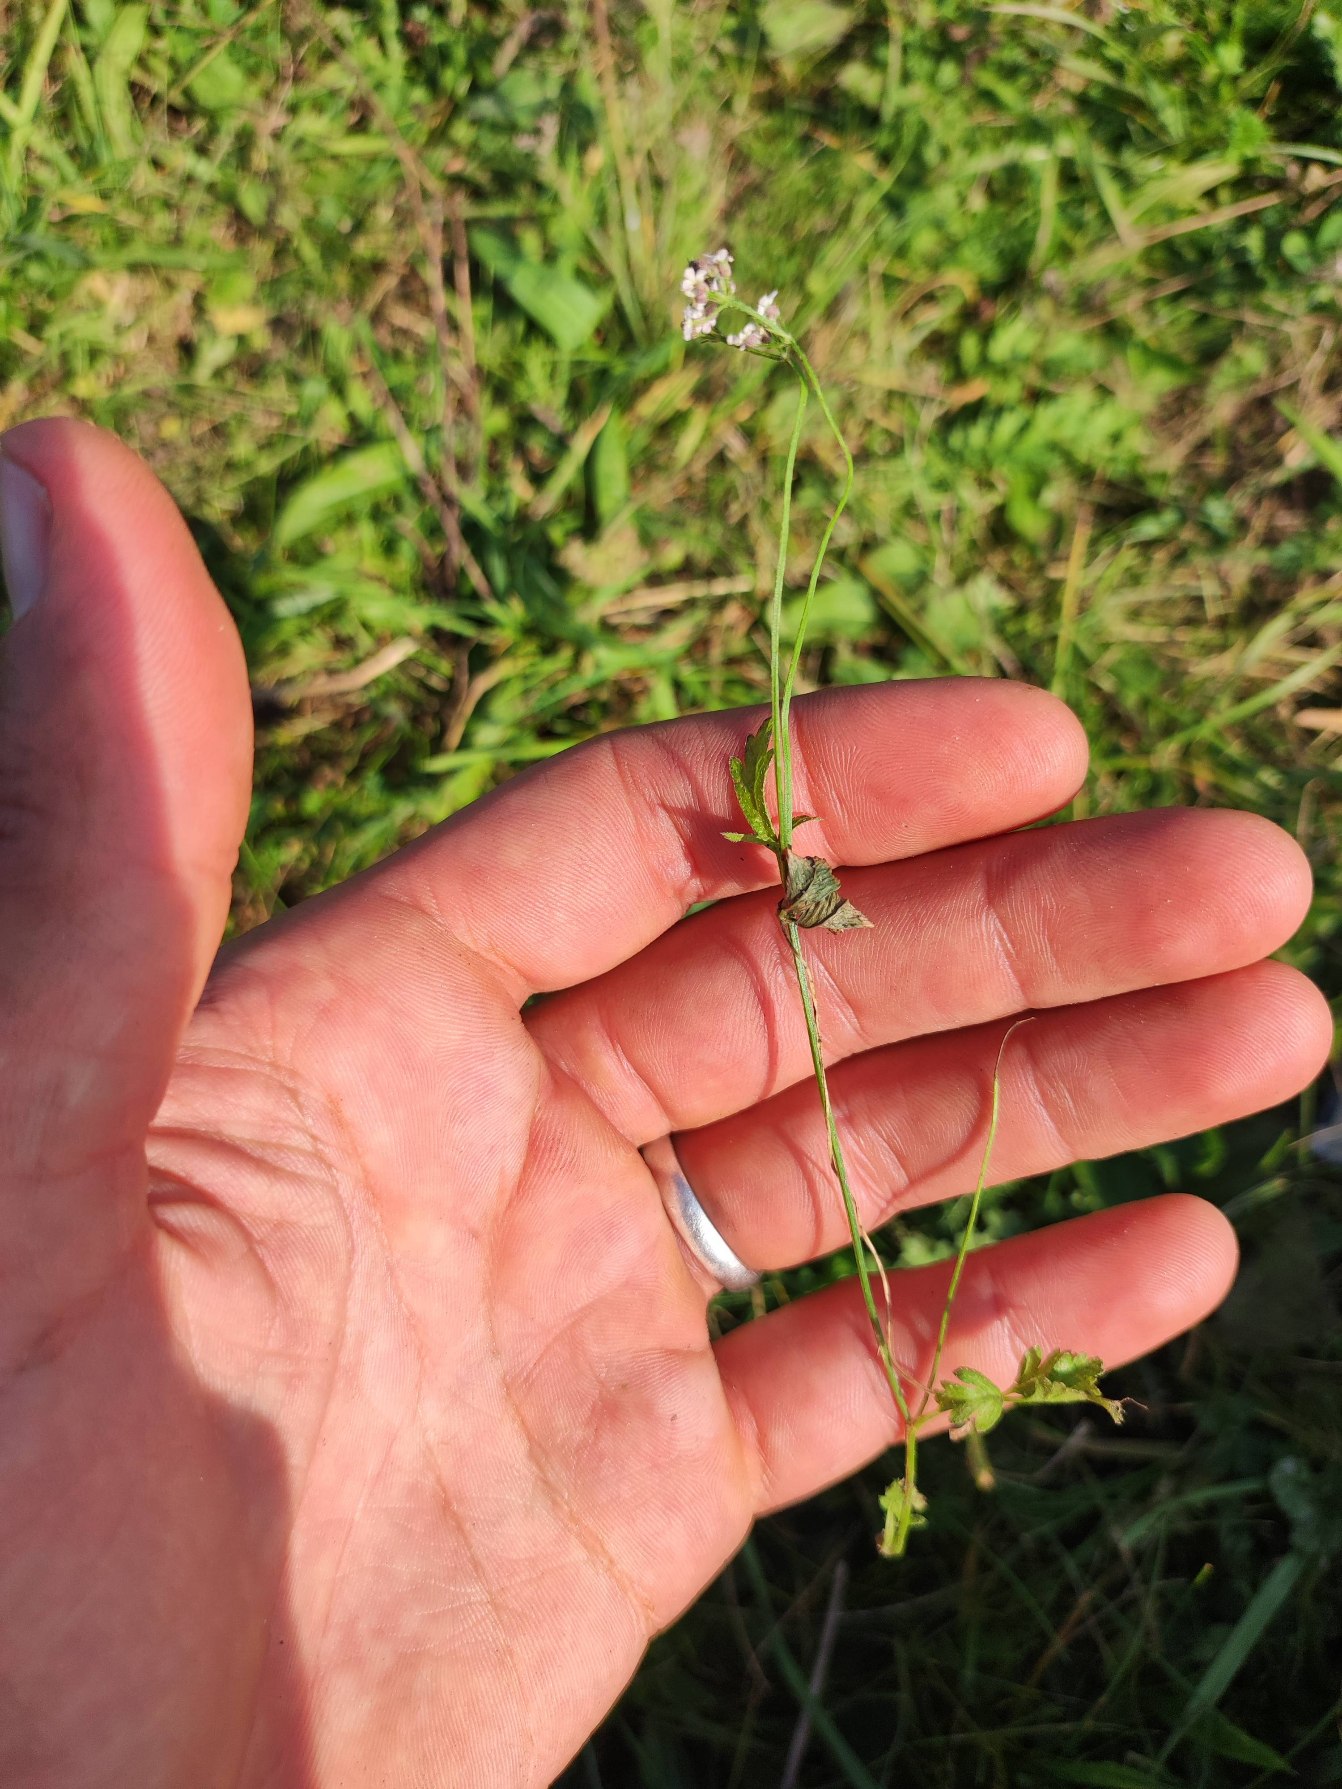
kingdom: Plantae
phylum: Tracheophyta
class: Magnoliopsida
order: Apiales
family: Apiaceae
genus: Torilis
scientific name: Torilis japonica
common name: Hvas randfrø
